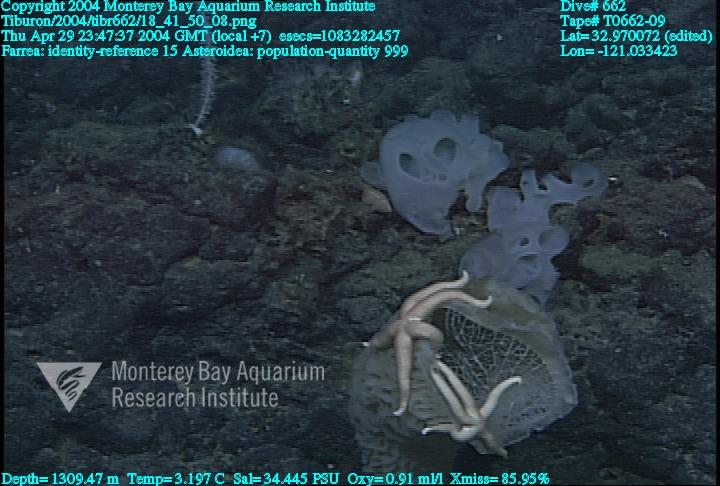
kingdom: Animalia
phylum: Porifera
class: Hexactinellida
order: Sceptrulophora
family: Farreidae
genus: Farrea
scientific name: Farrea
